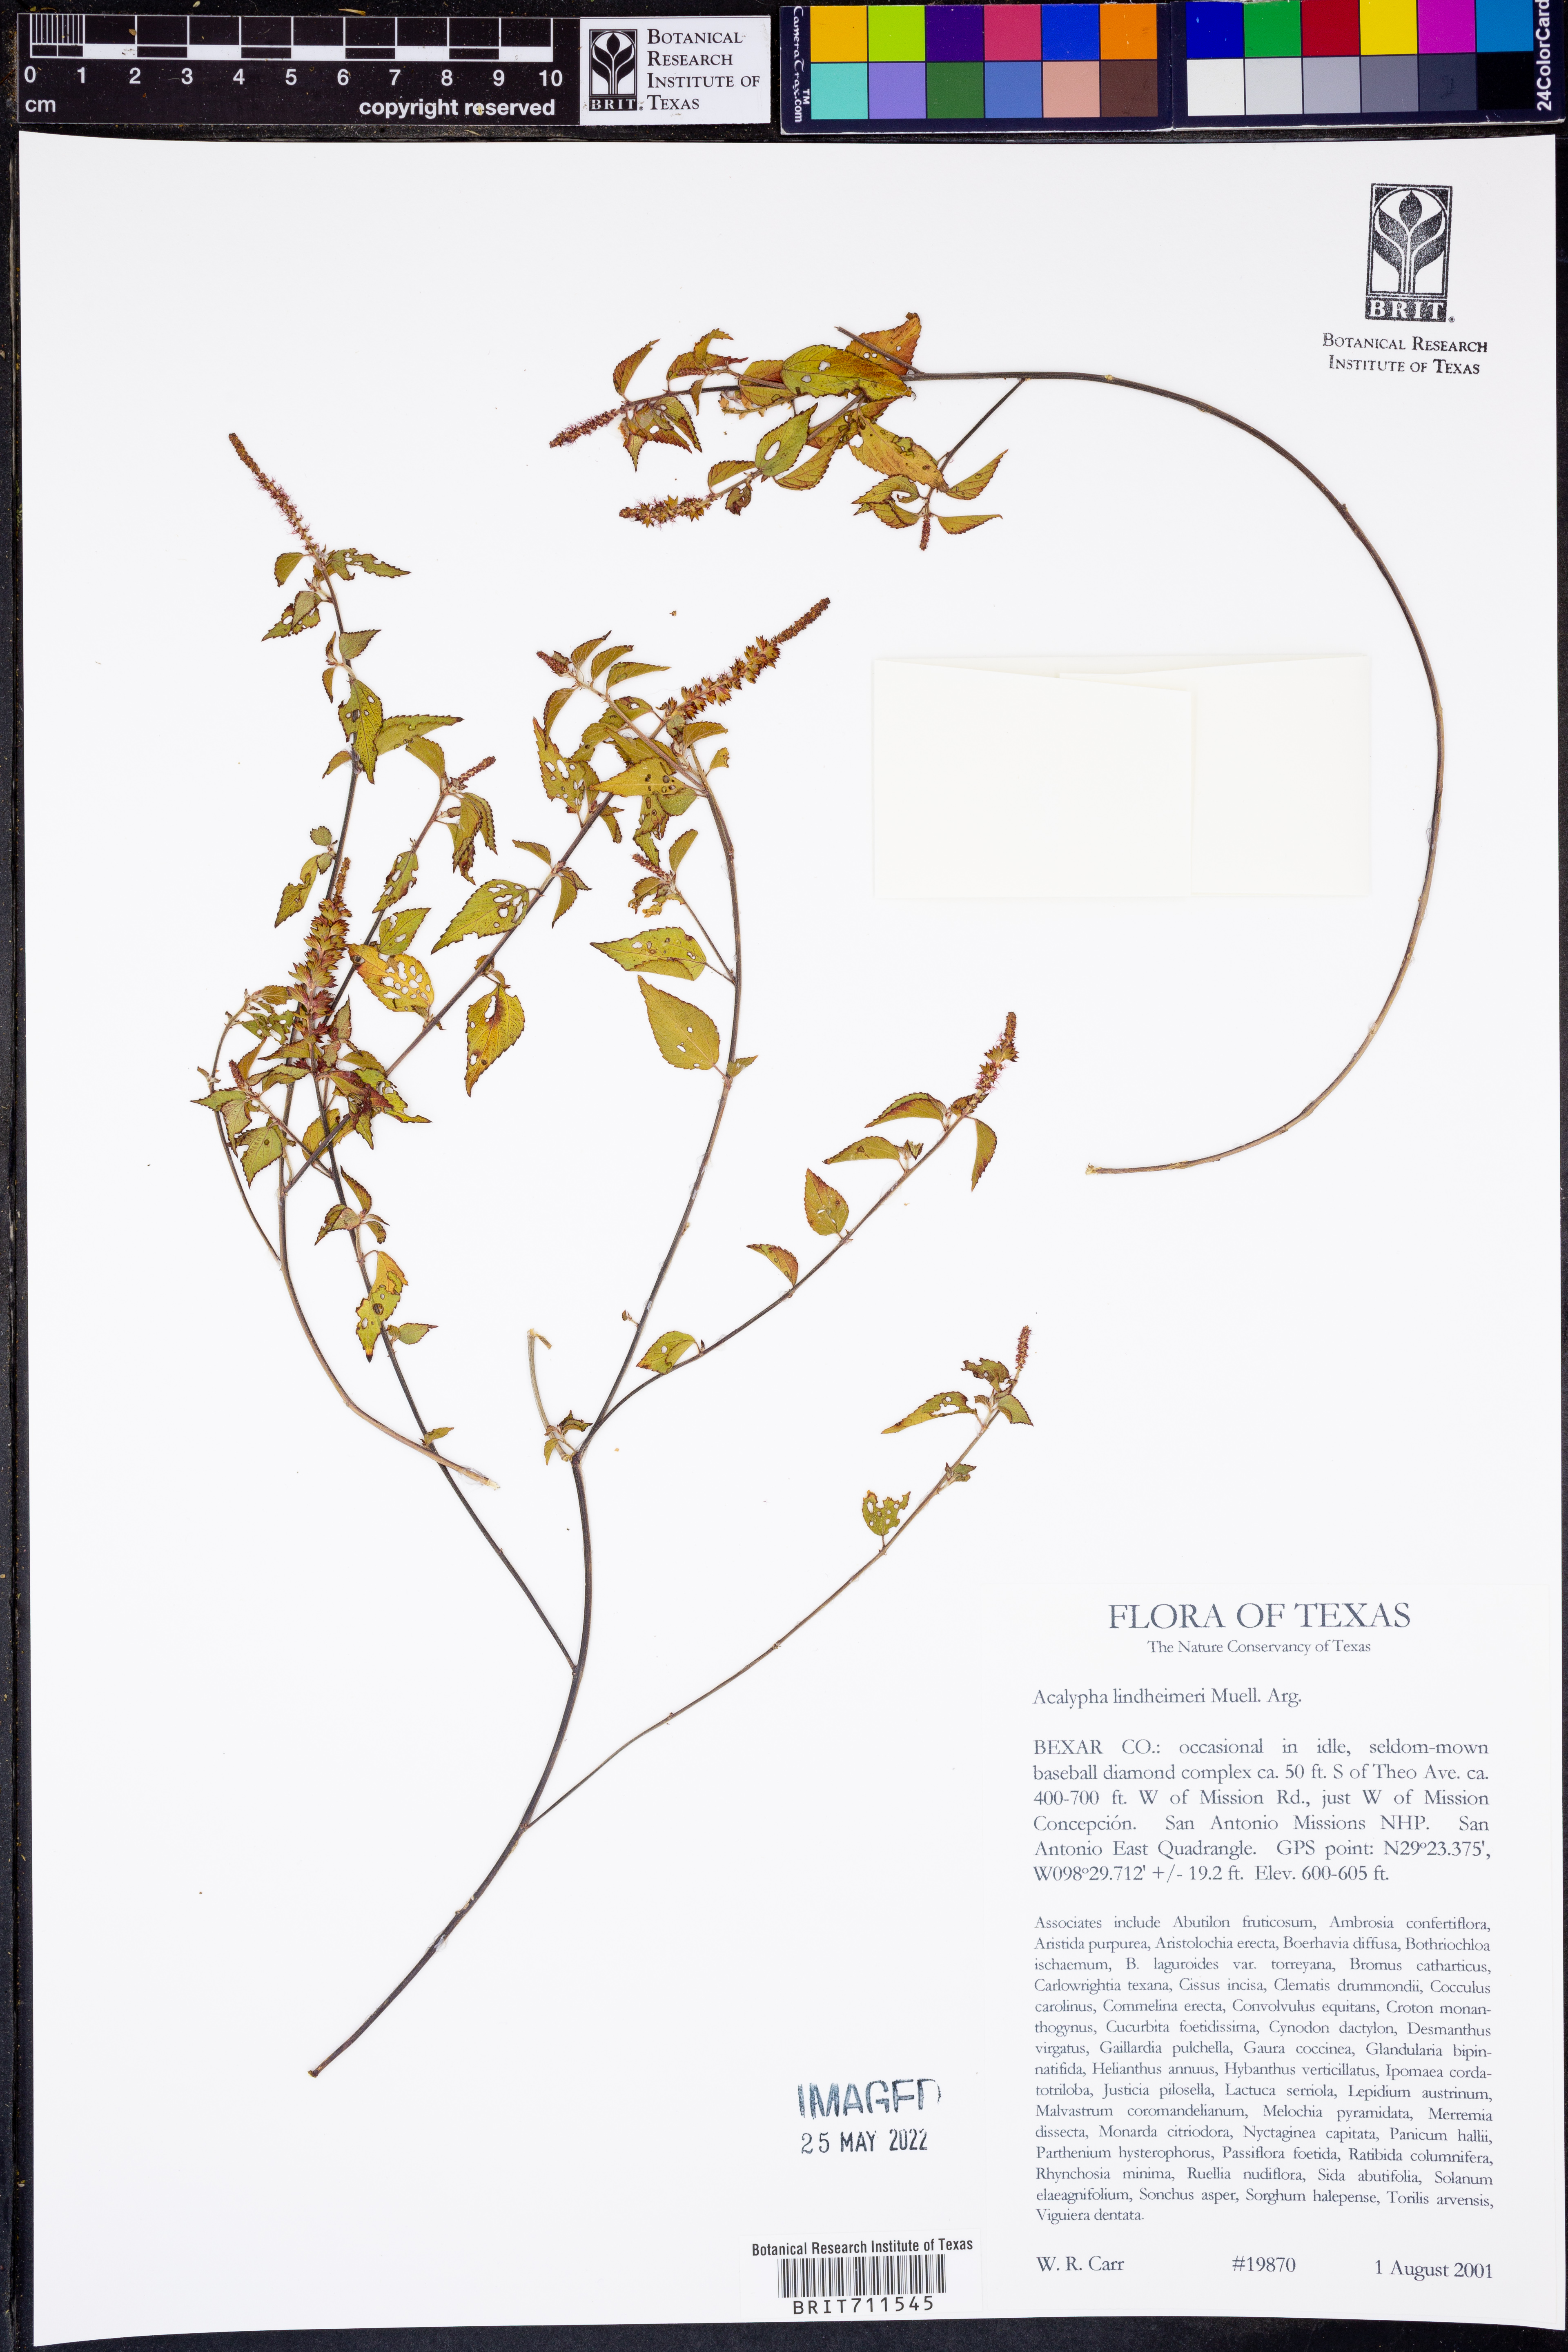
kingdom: Plantae
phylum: Tracheophyta
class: Magnoliopsida
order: Malpighiales
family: Euphorbiaceae
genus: Acalypha
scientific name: Acalypha phleoides
